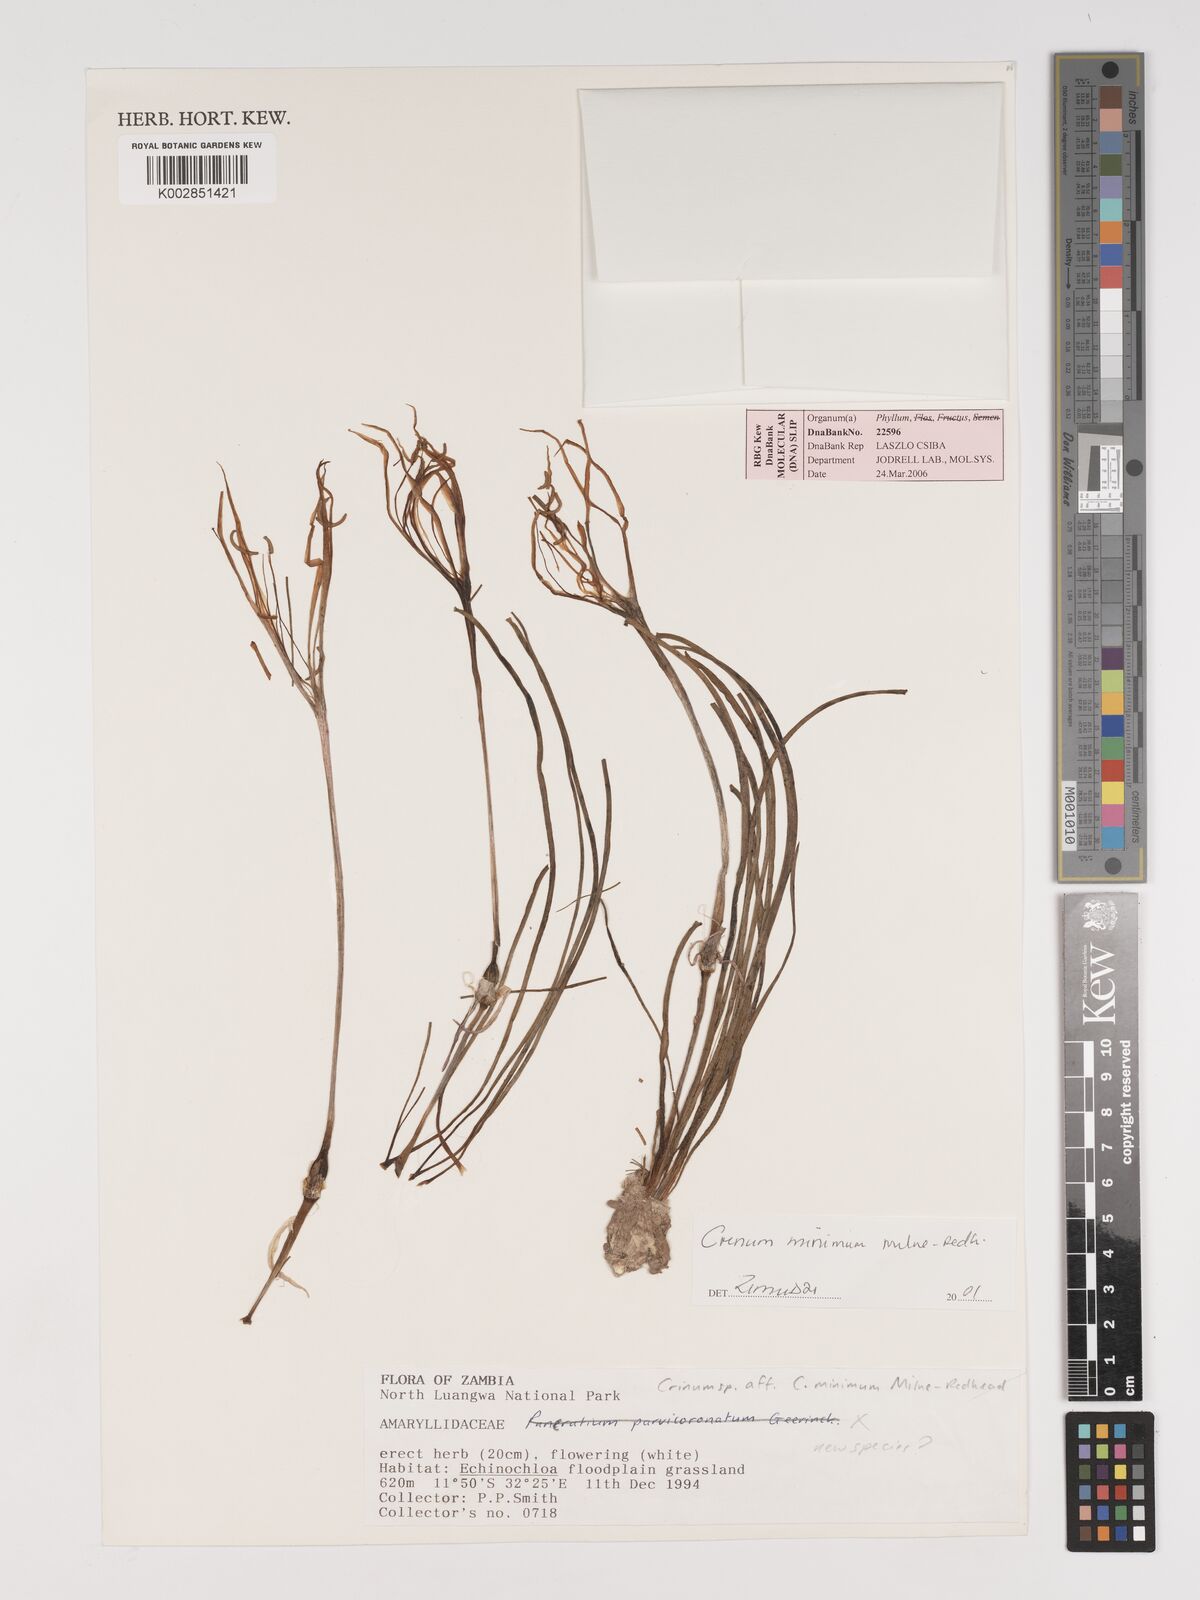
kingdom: Plantae
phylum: Tracheophyta
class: Liliopsida
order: Asparagales
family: Amaryllidaceae
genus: Crinum
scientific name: Crinum minimum
